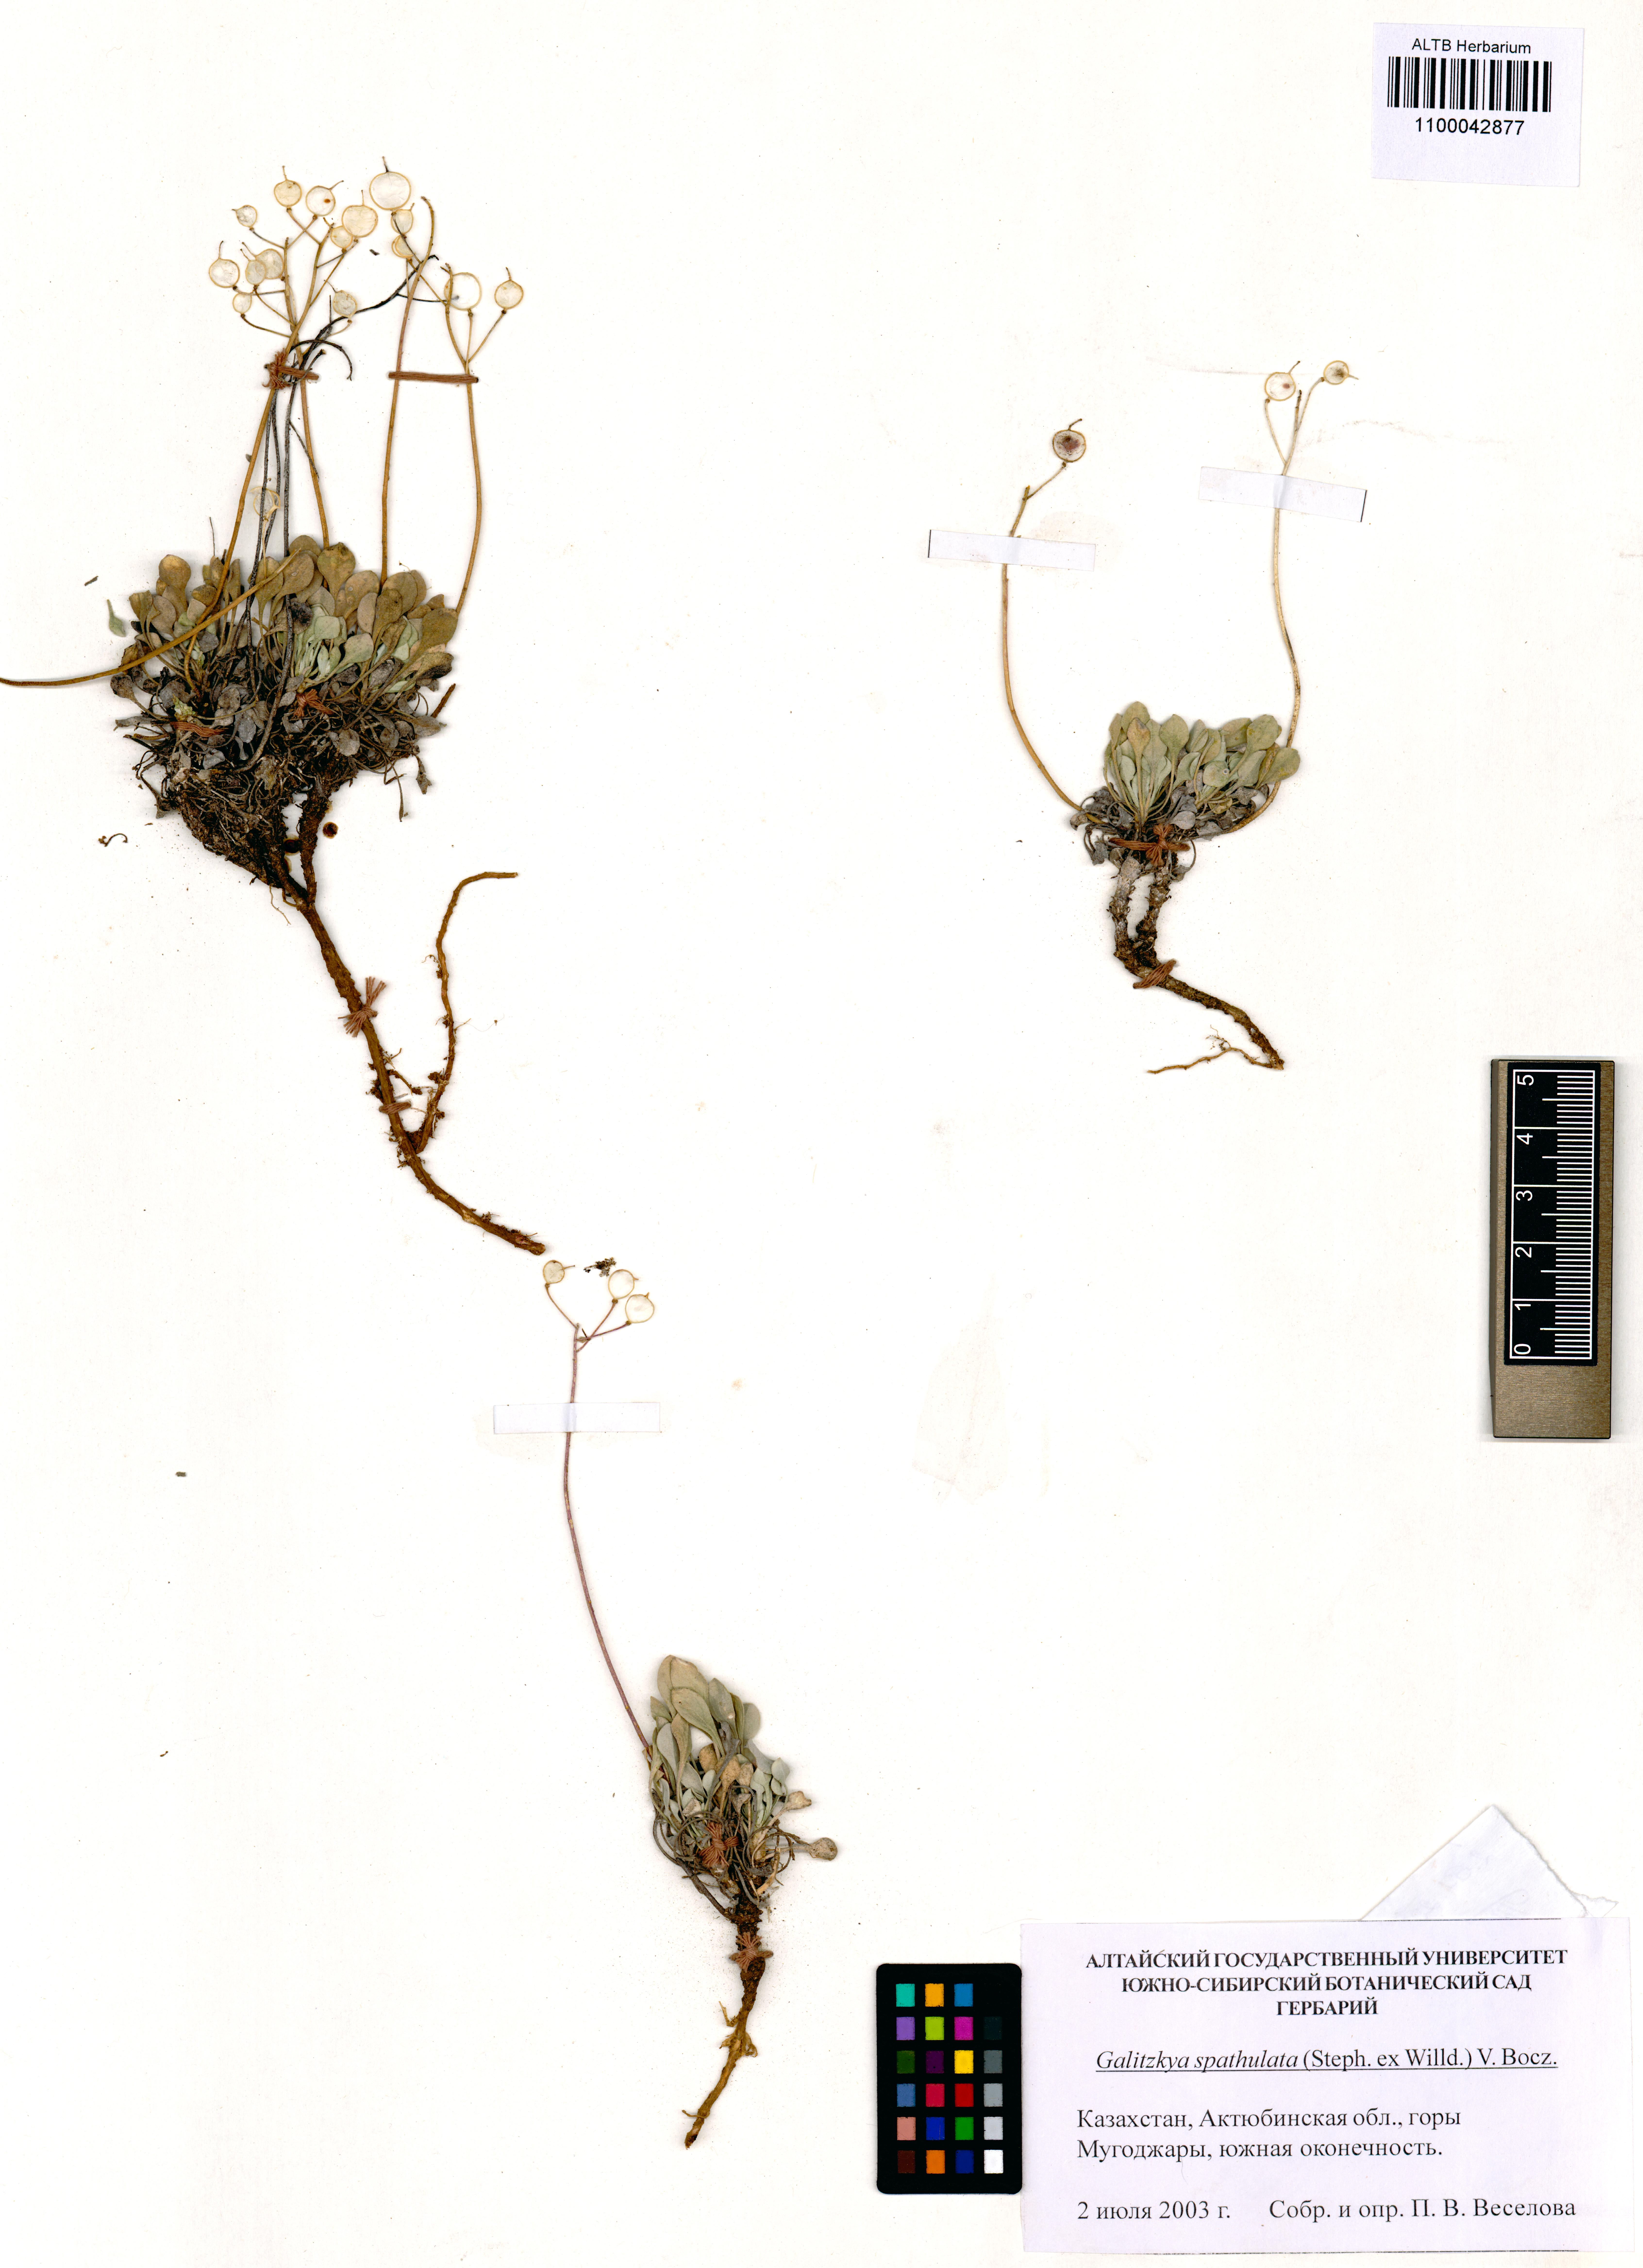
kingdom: Plantae
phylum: Tracheophyta
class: Magnoliopsida
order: Brassicales
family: Brassicaceae
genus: Galitzkya
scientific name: Galitzkya spathulata
